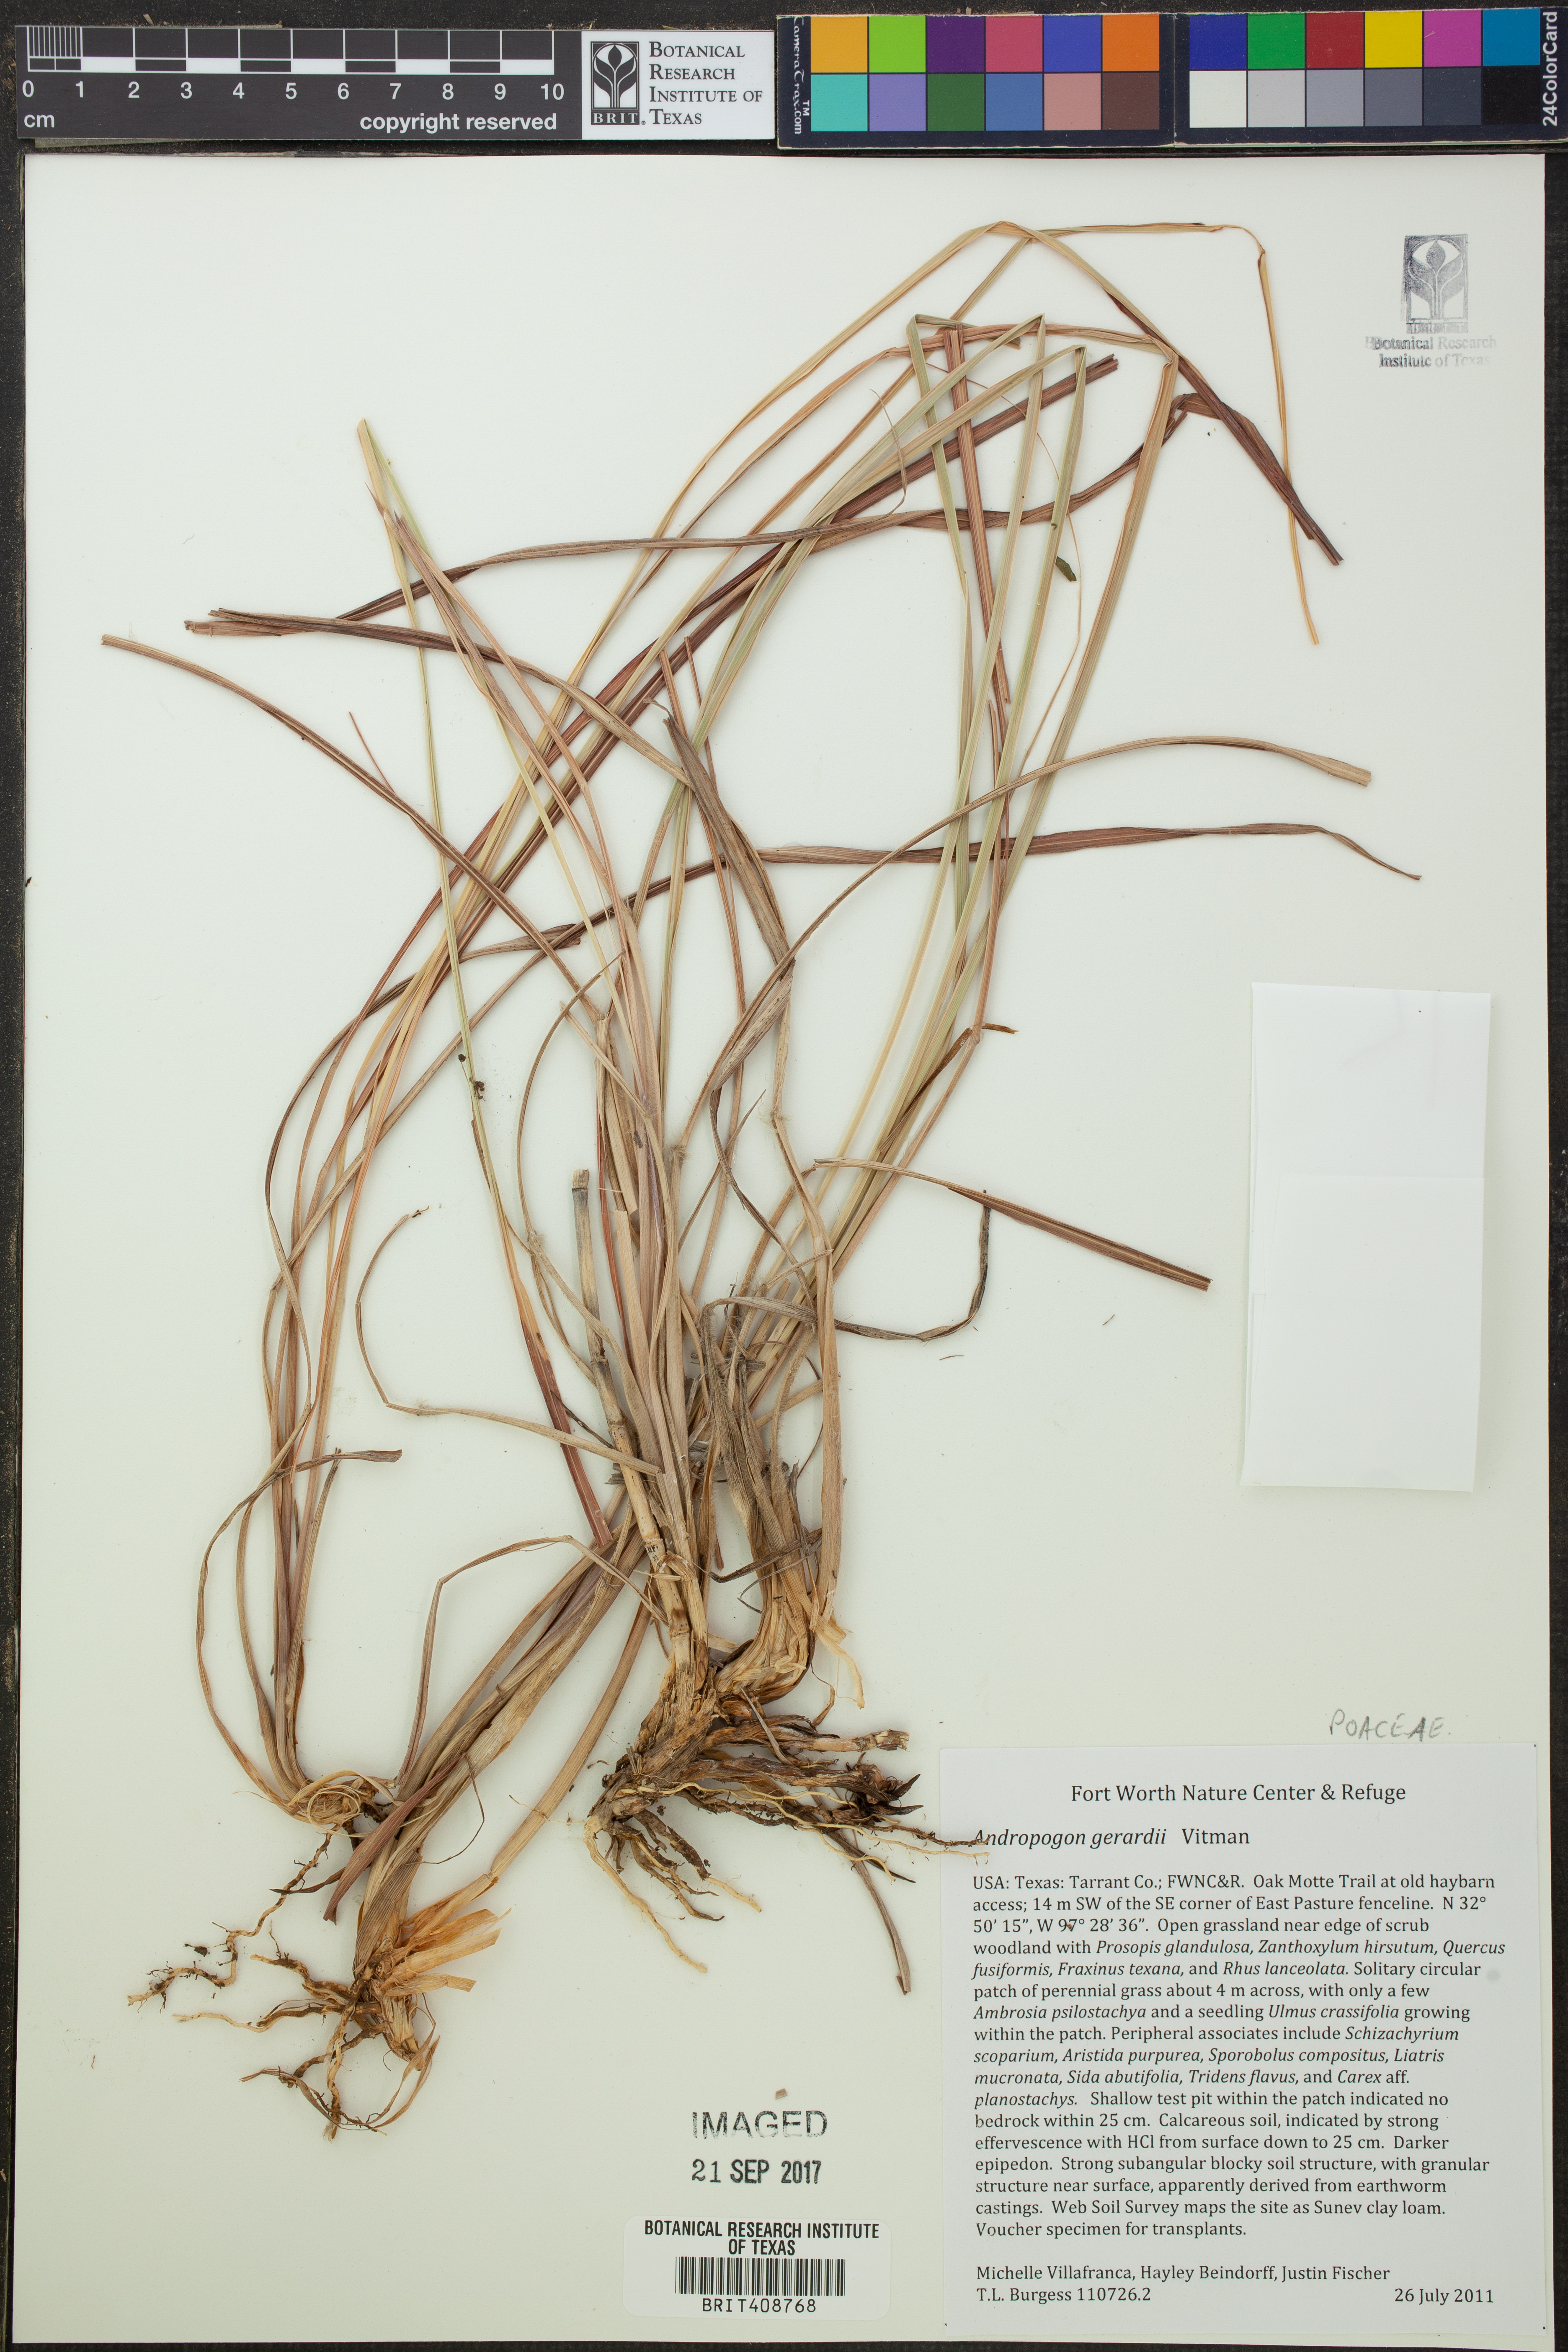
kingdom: Plantae
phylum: Tracheophyta
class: Liliopsida
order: Poales
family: Poaceae
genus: Andropogon
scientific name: Andropogon gerardi
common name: Big bluestem
